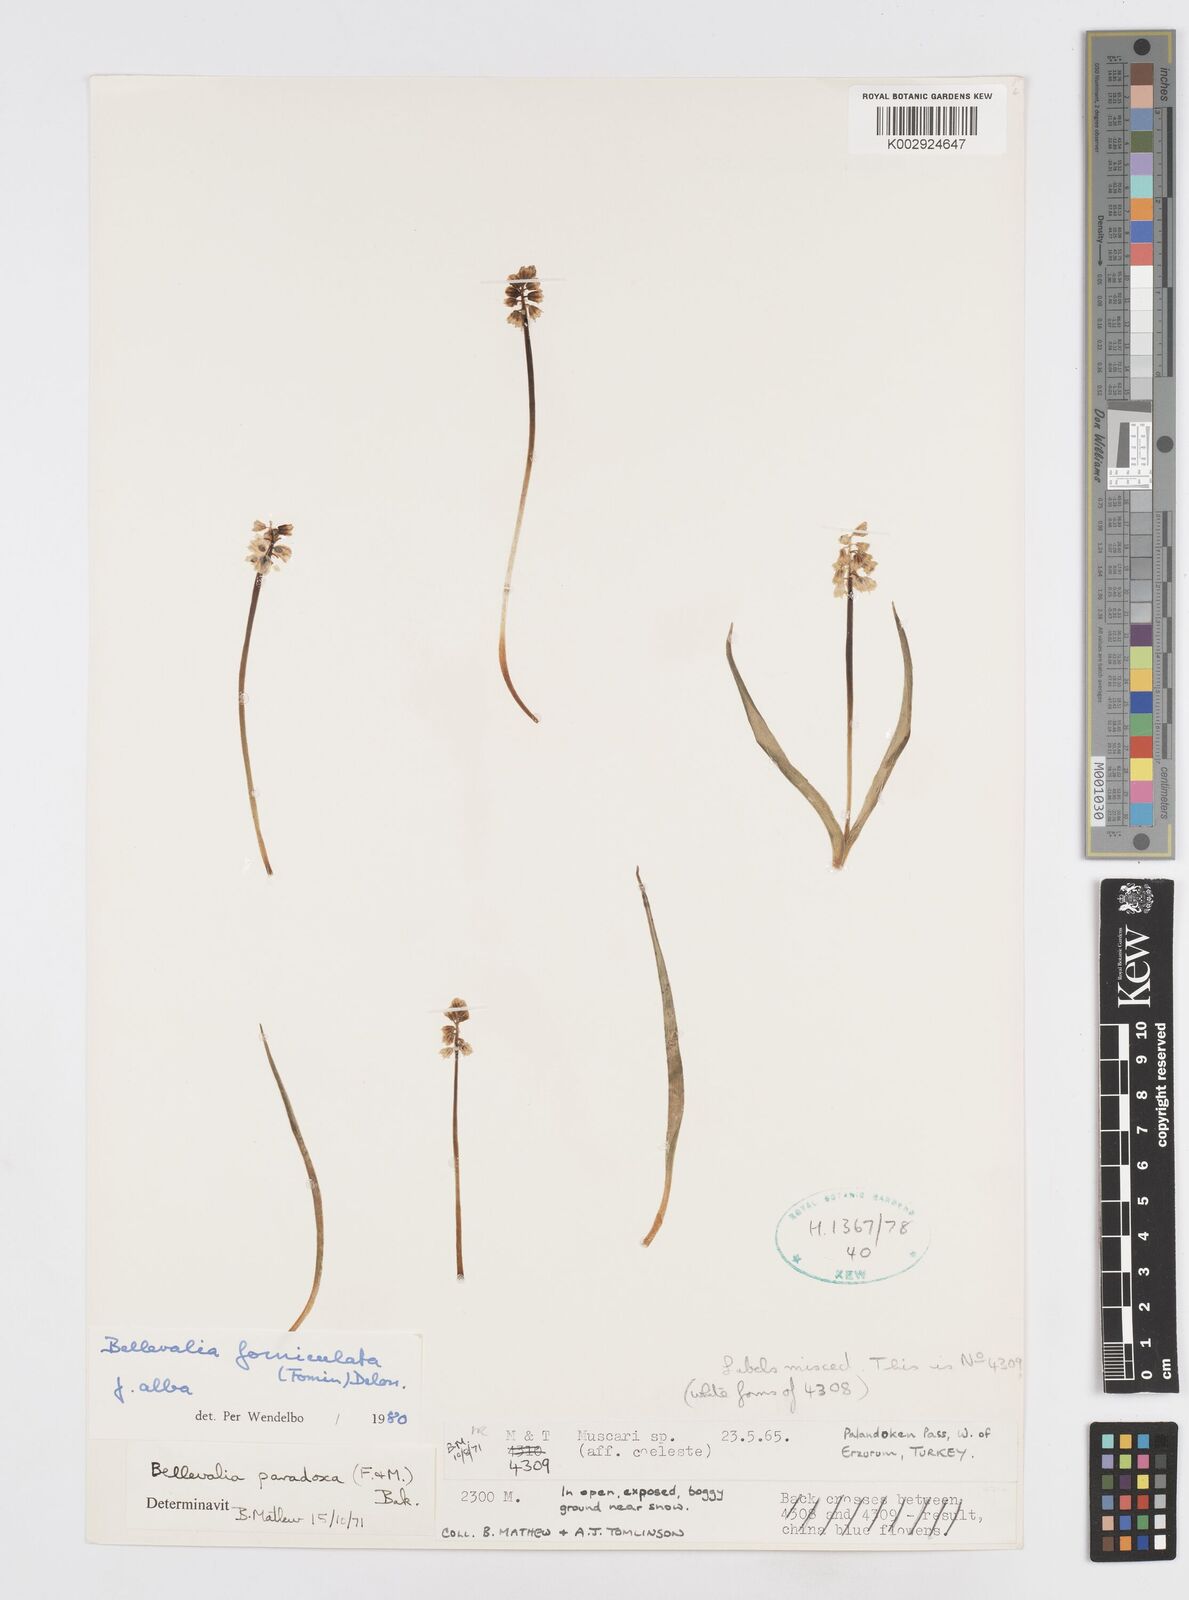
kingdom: Plantae
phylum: Tracheophyta
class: Liliopsida
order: Asparagales
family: Asparagaceae
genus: Muscari
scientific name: Muscari forniculatum
